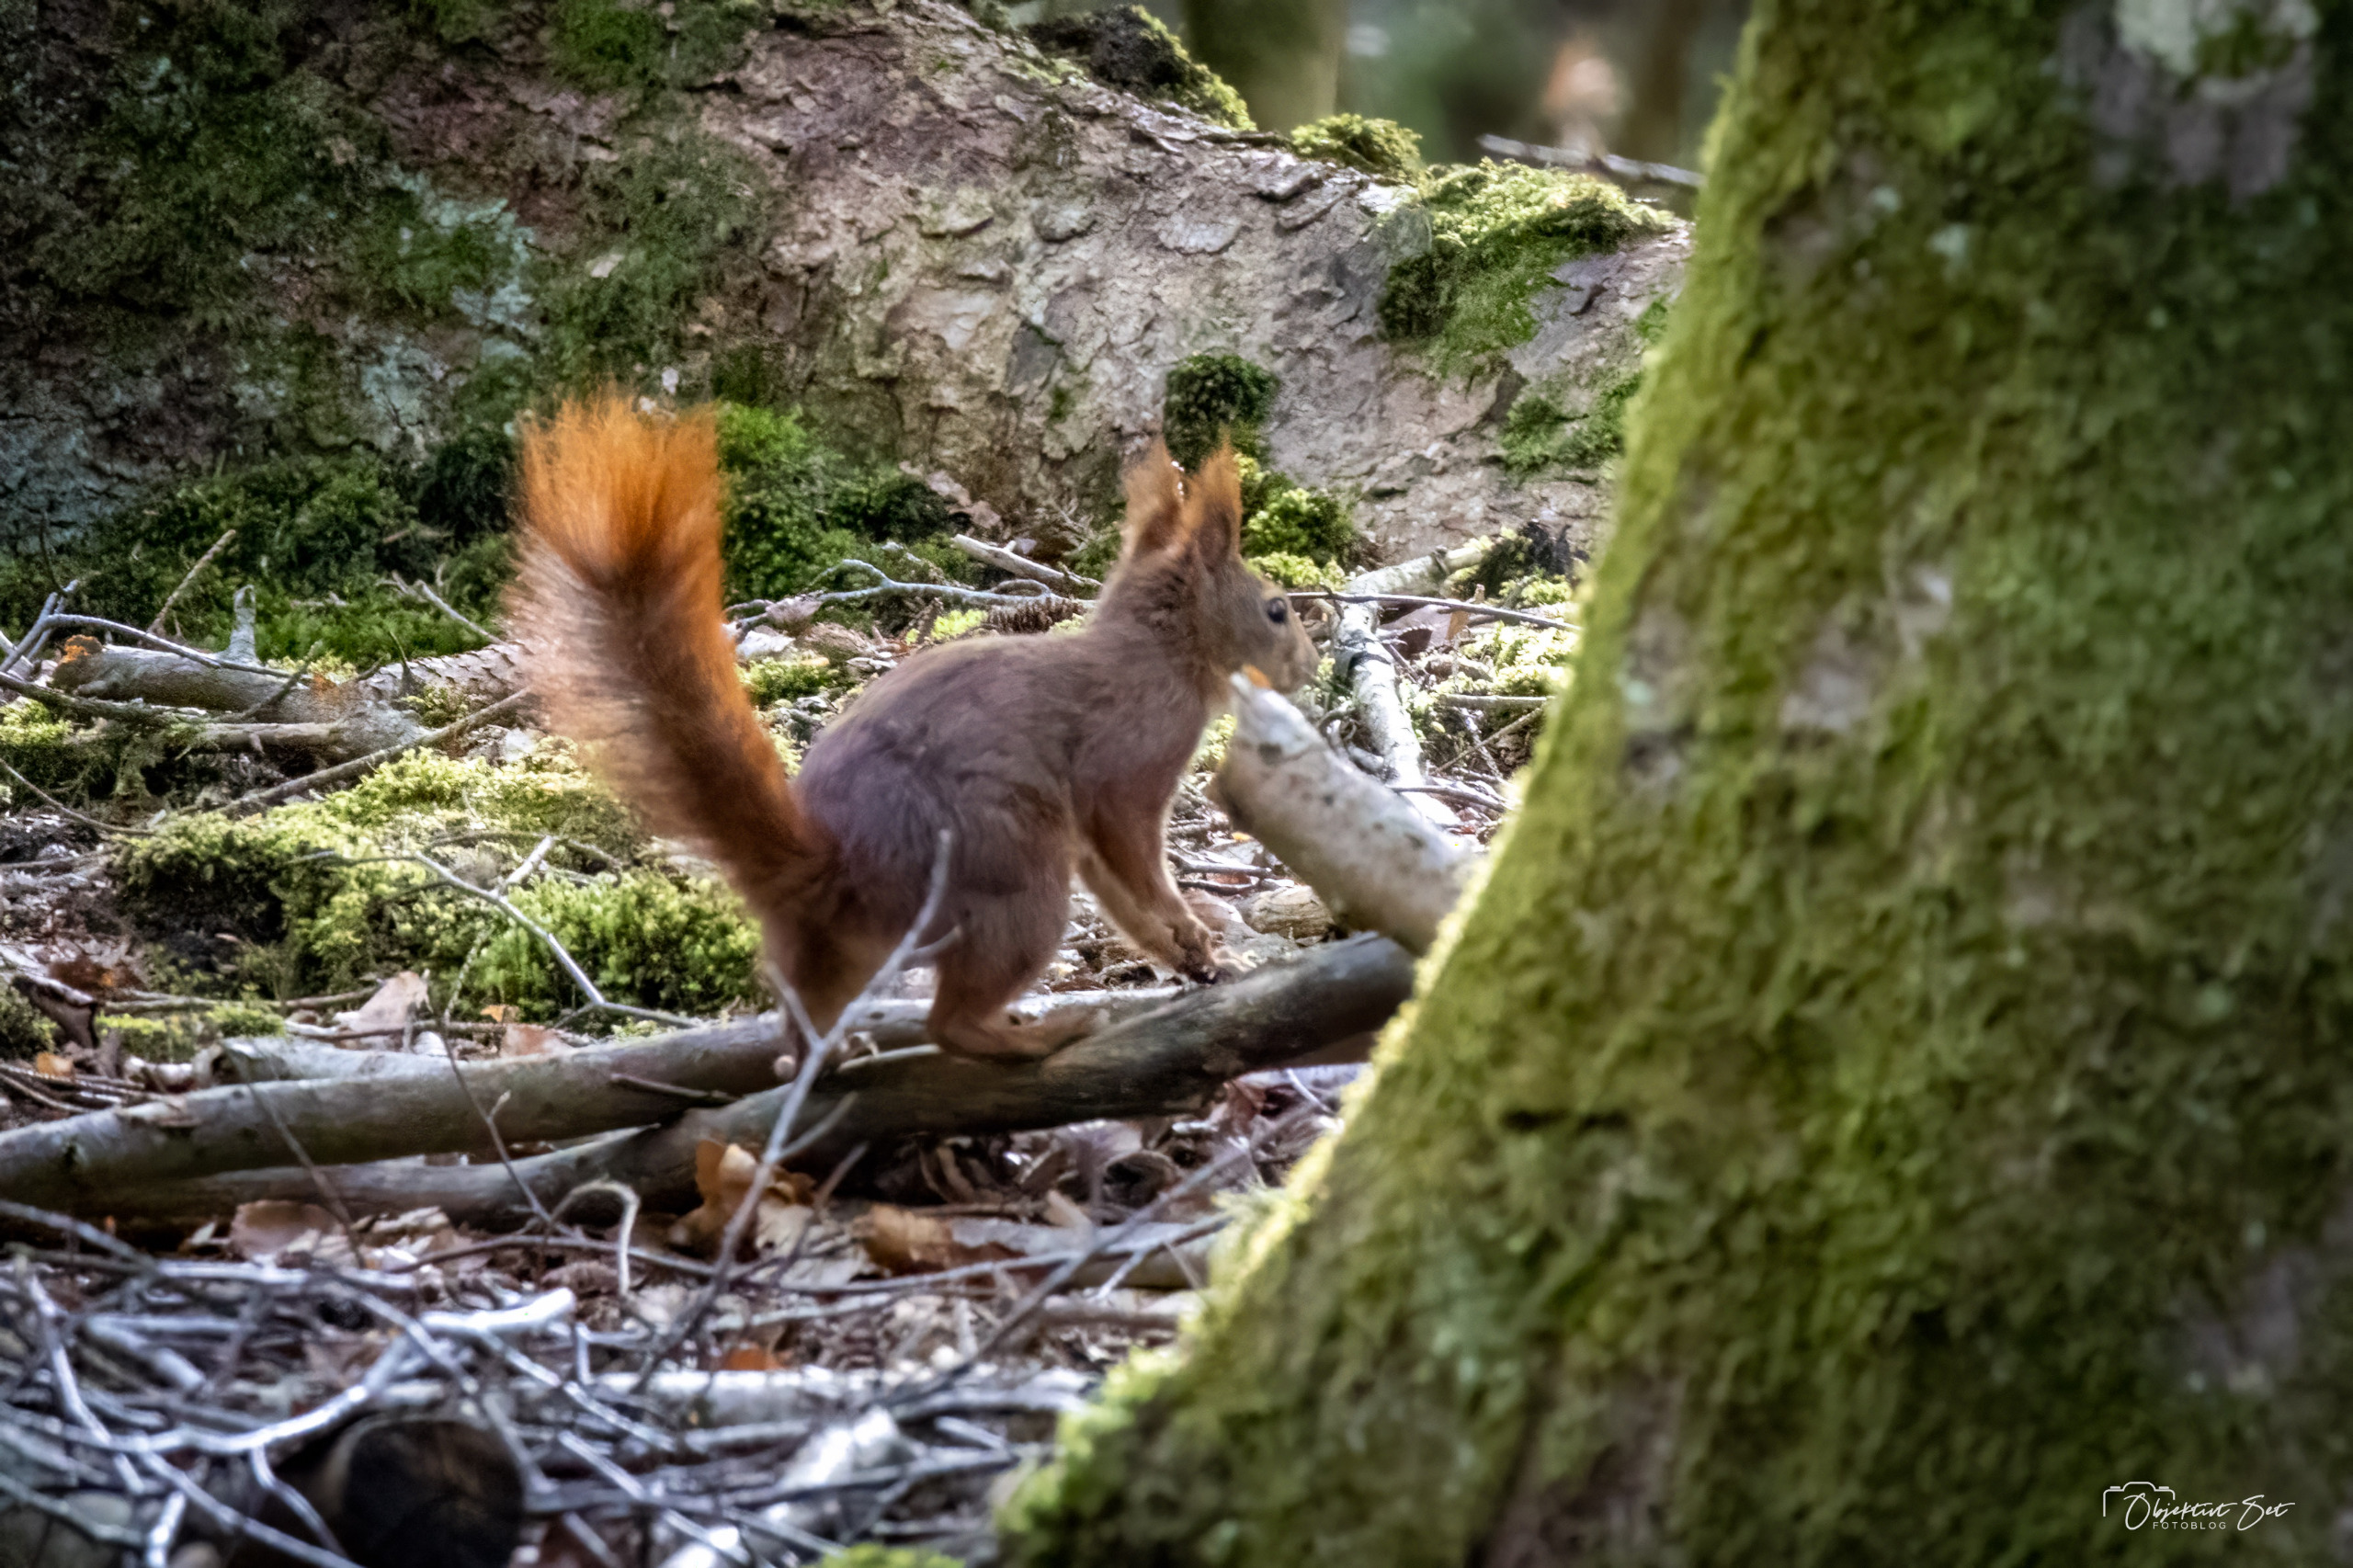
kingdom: Animalia
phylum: Chordata
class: Mammalia
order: Rodentia
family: Sciuridae
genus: Sciurus
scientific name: Sciurus vulgaris
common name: Egern
